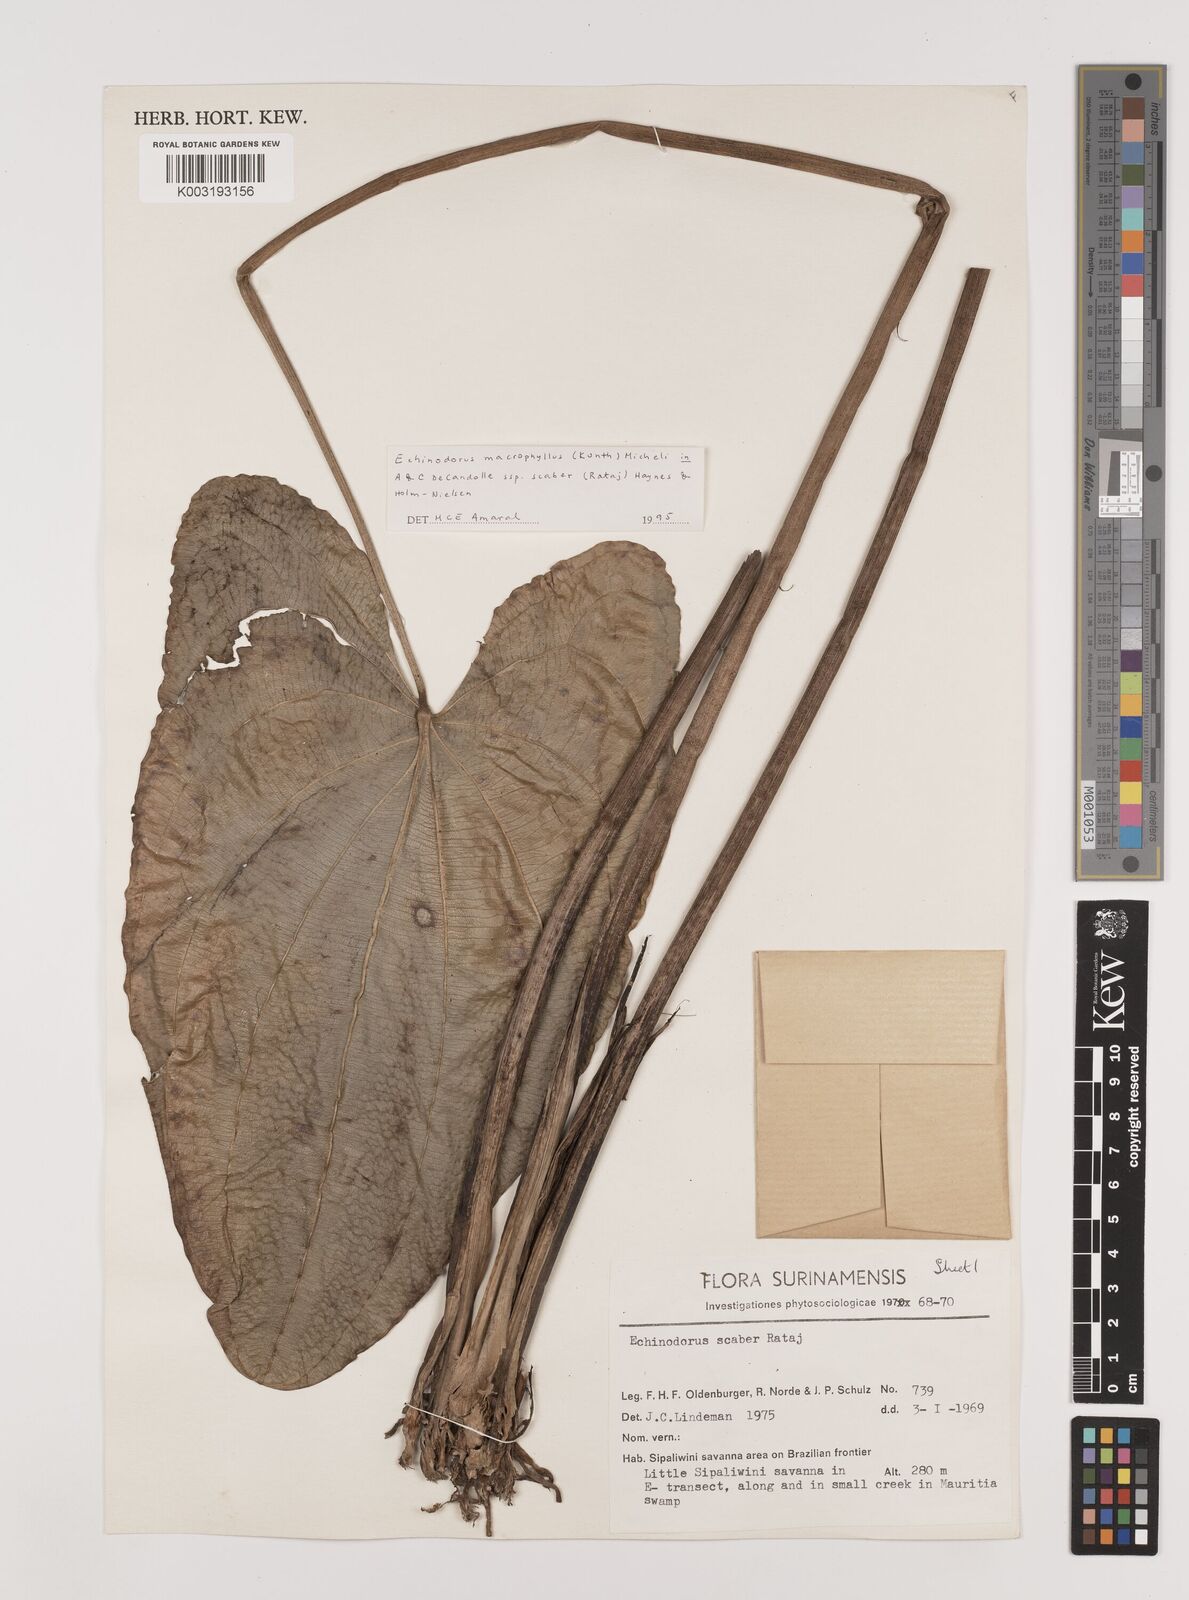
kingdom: Plantae
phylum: Tracheophyta
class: Liliopsida
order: Alismatales
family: Alismataceae
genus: Aquarius
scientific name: Aquarius scaber
